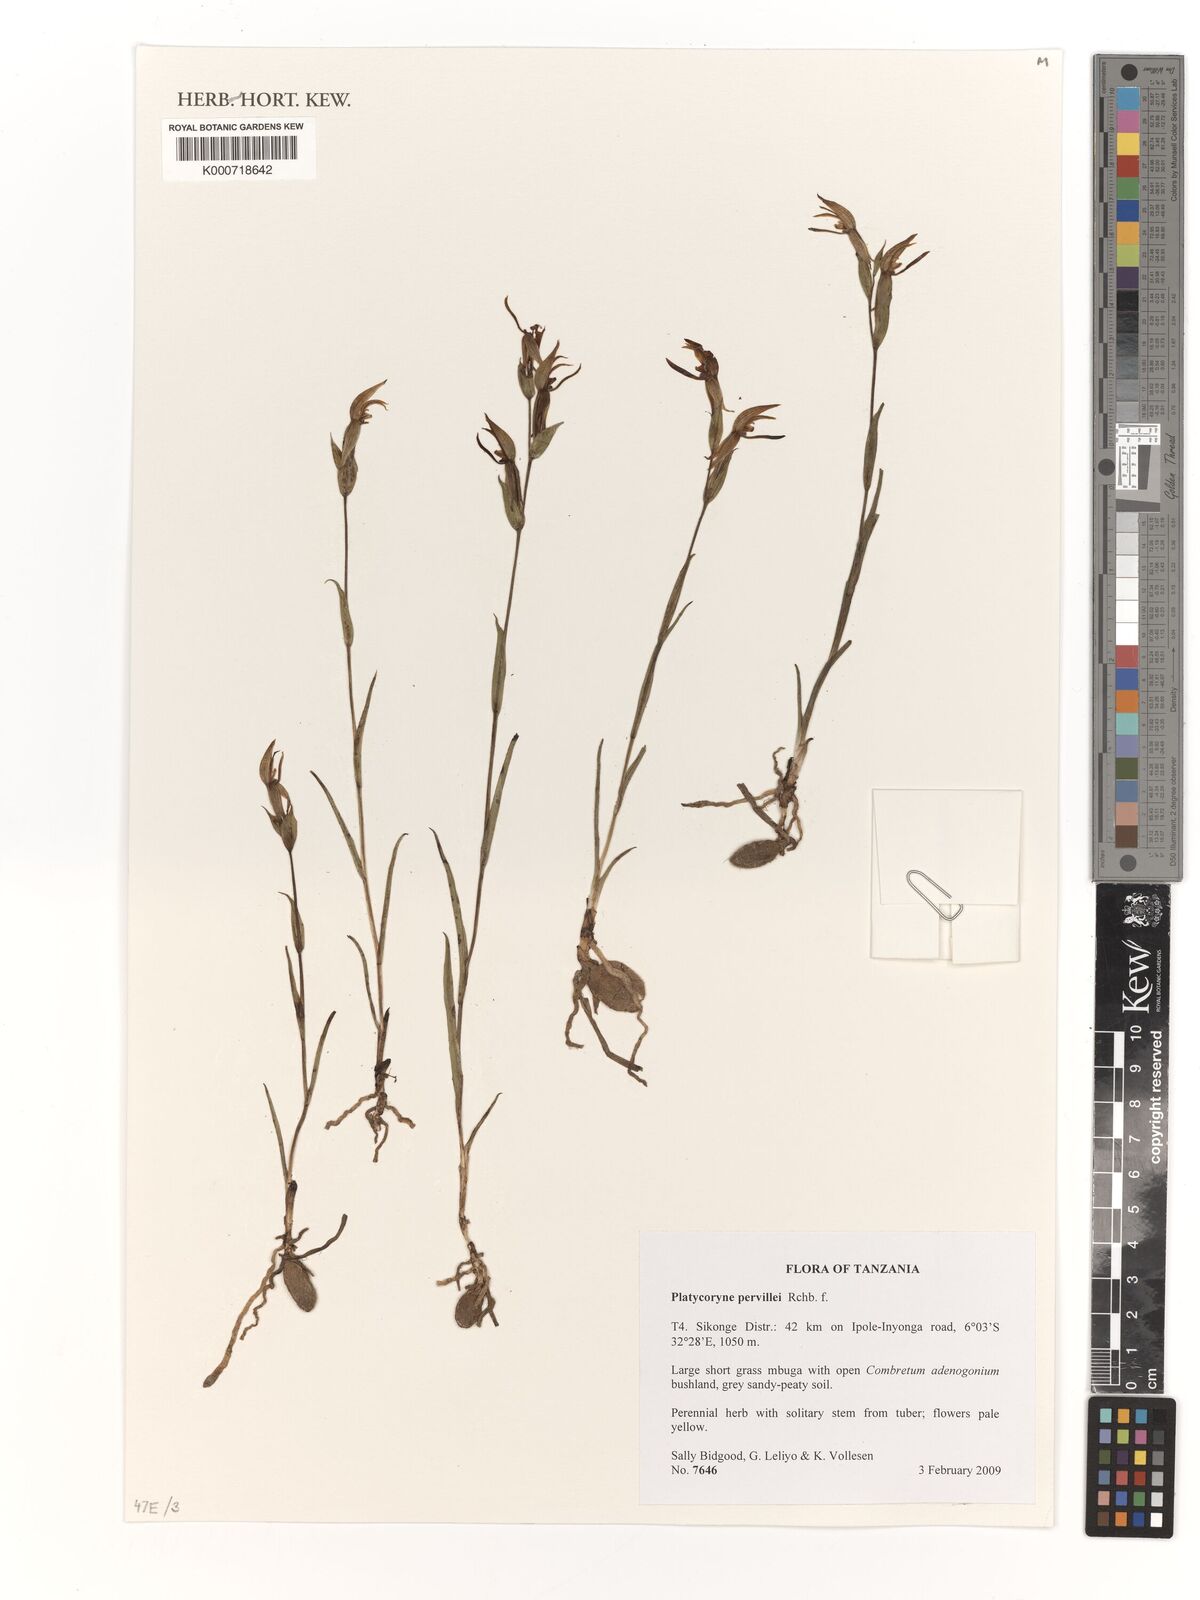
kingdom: Plantae
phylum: Tracheophyta
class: Liliopsida
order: Asparagales
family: Orchidaceae
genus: Platycoryne
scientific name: Platycoryne pervillei
